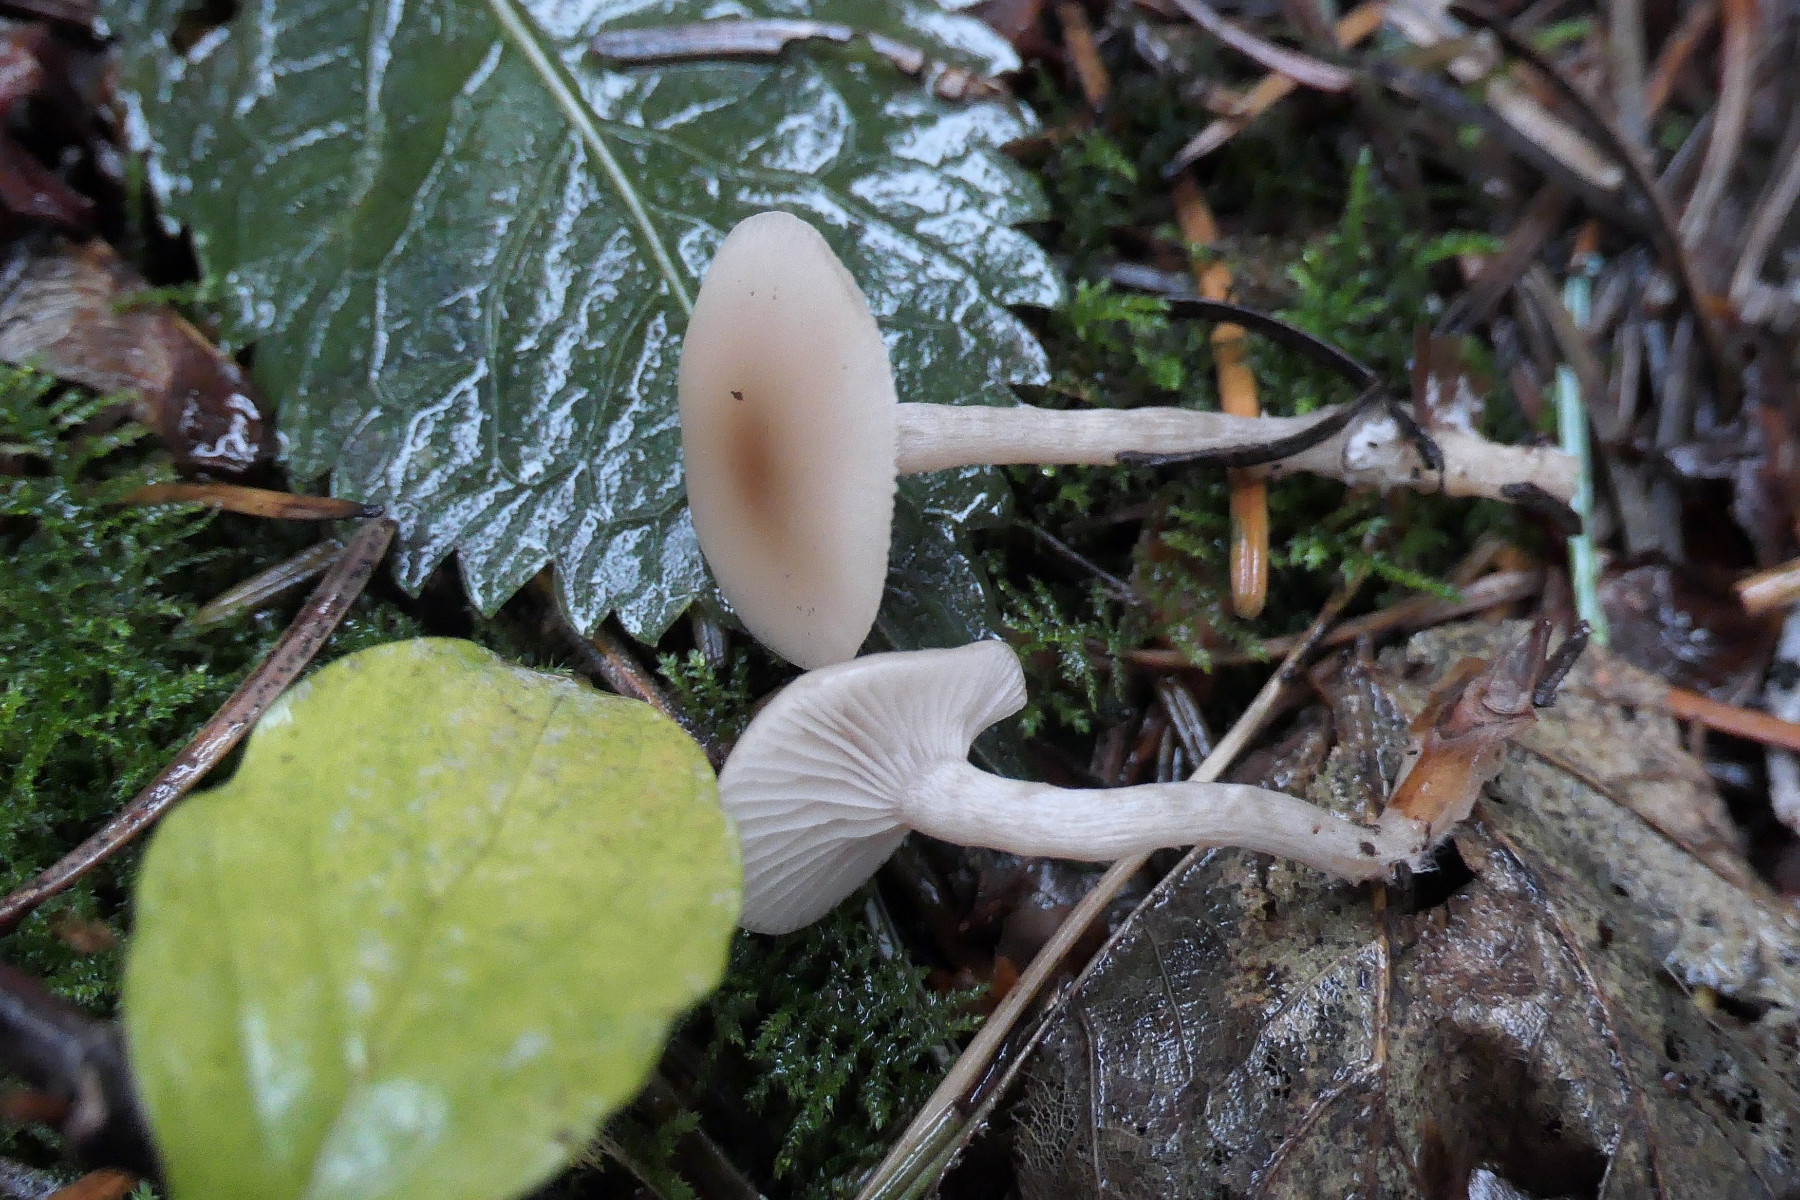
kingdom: Fungi
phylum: Basidiomycota
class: Agaricomycetes
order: Agaricales
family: Tricholomataceae
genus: Clitocybe
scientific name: Clitocybe fragrans
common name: vellugtende tragthat
